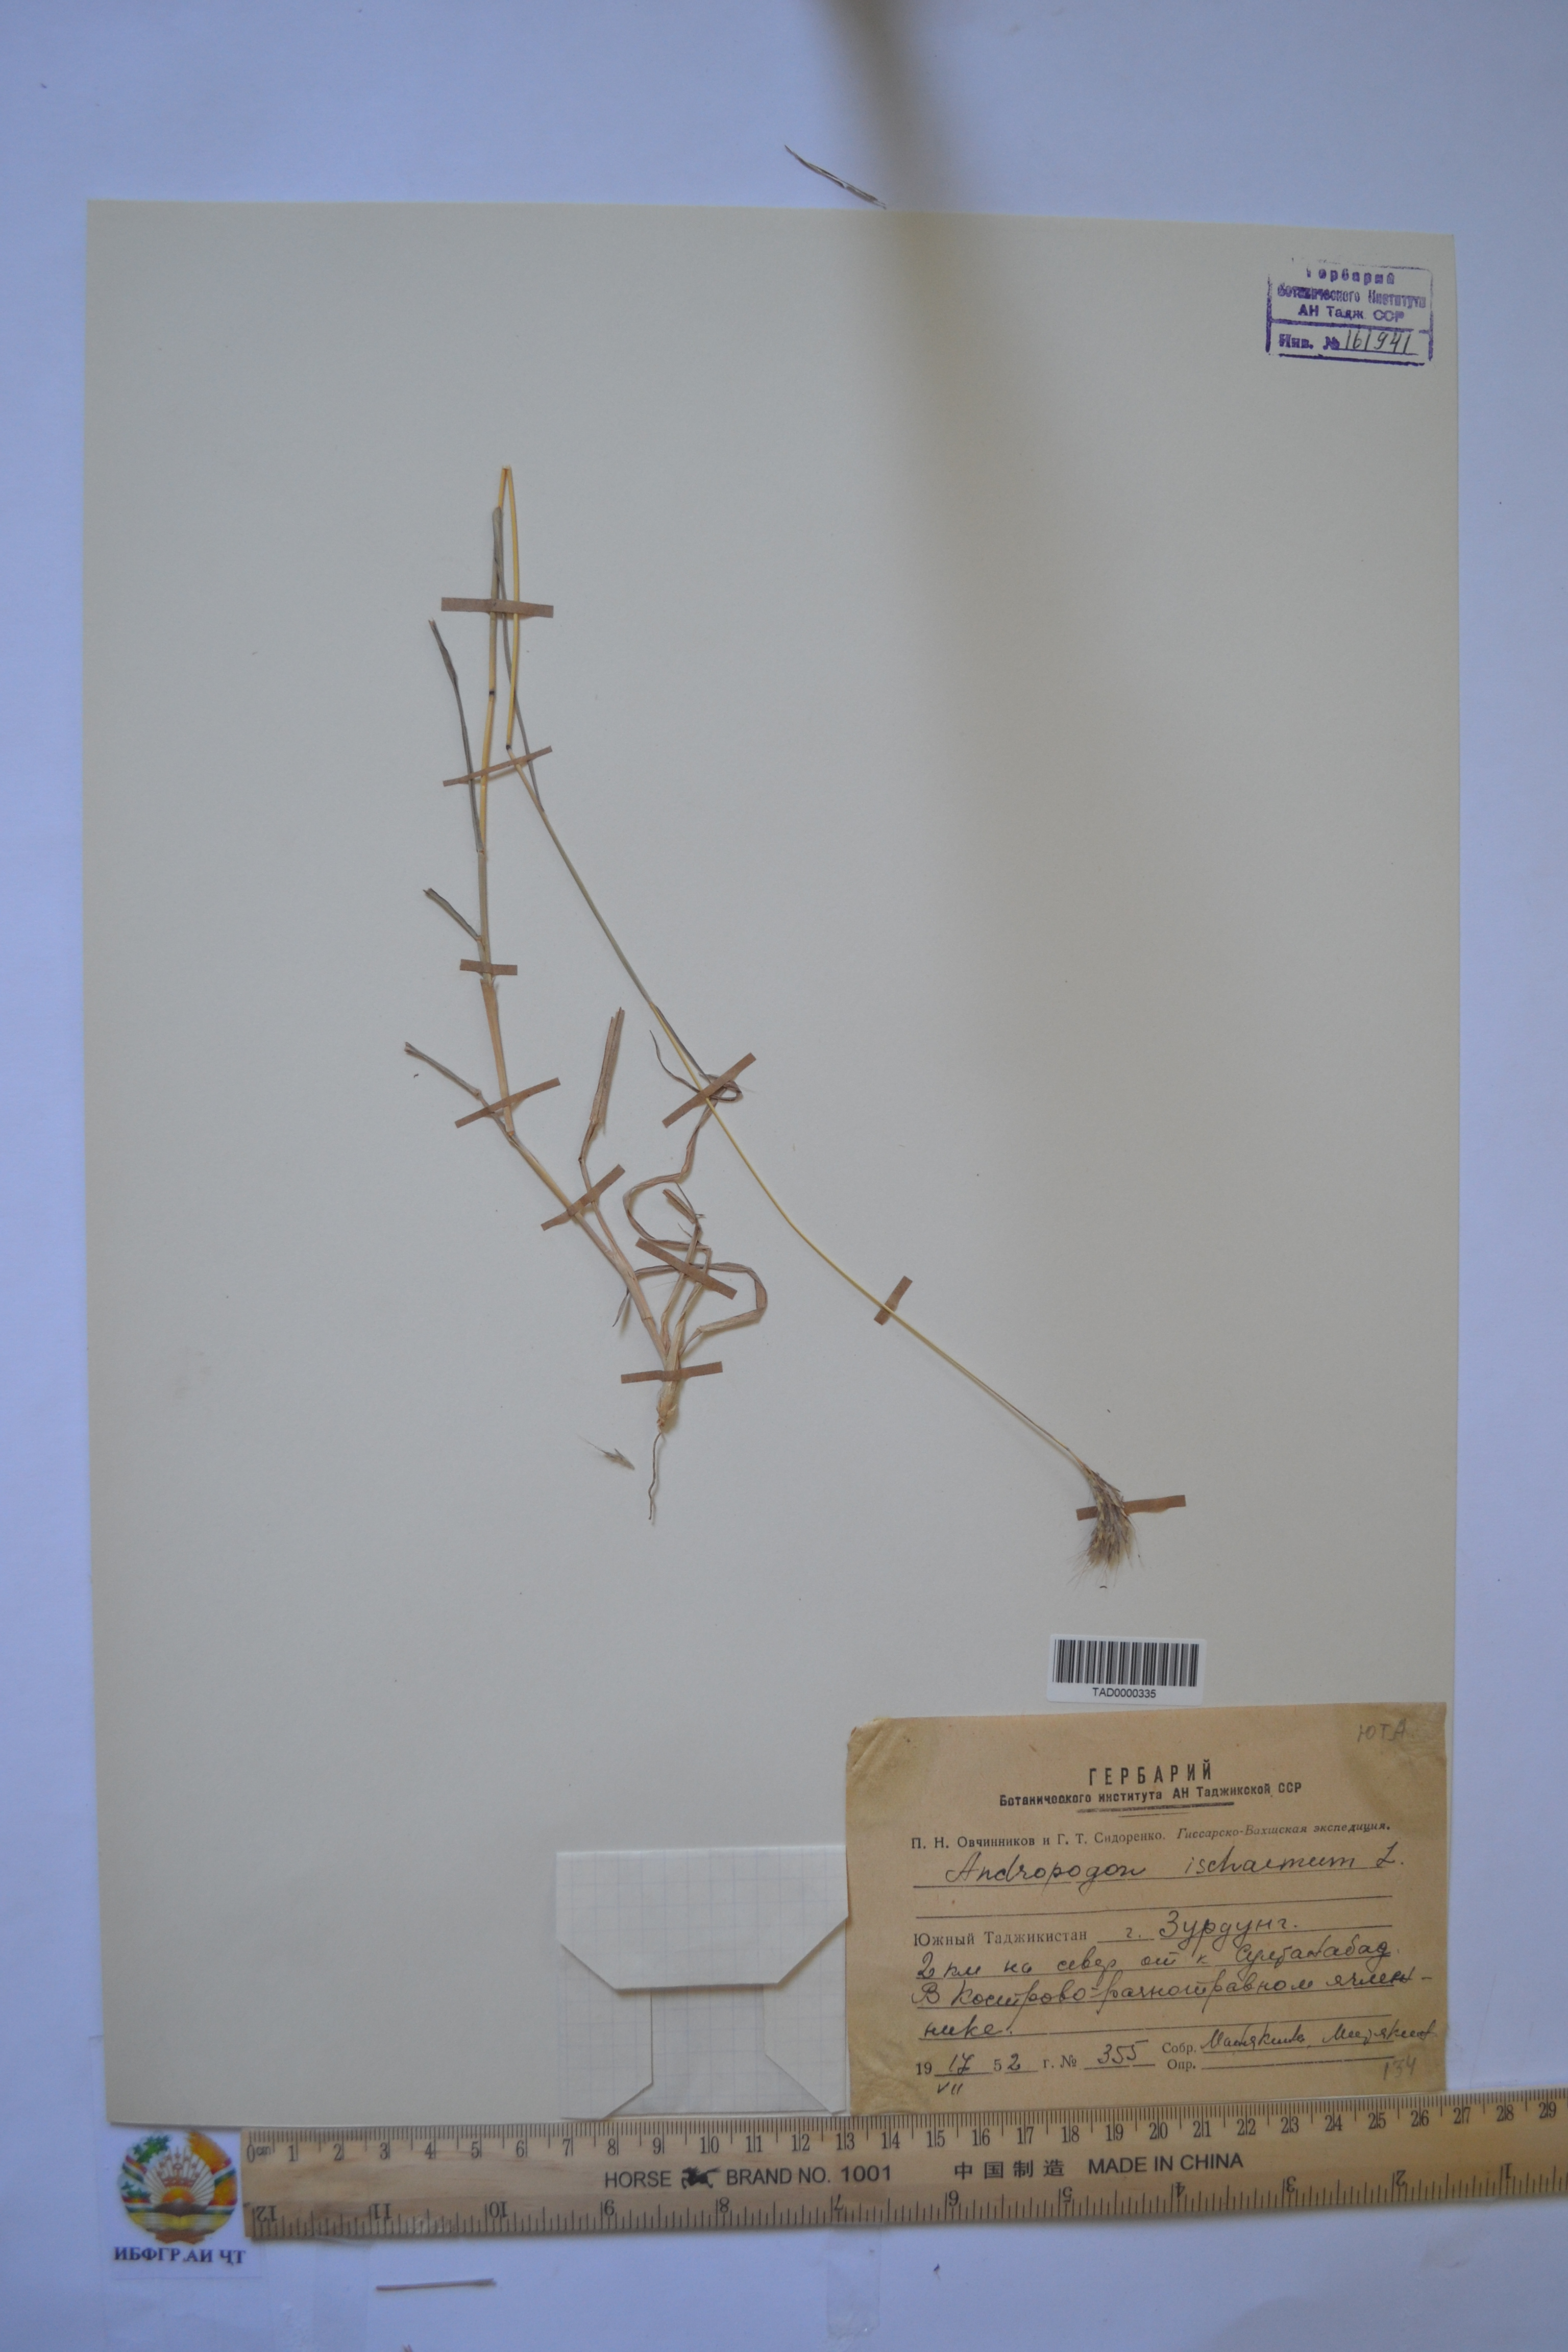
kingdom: Plantae
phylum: Tracheophyta
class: Liliopsida
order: Poales
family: Poaceae
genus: Andropogon
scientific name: Andropogon ischaemum
